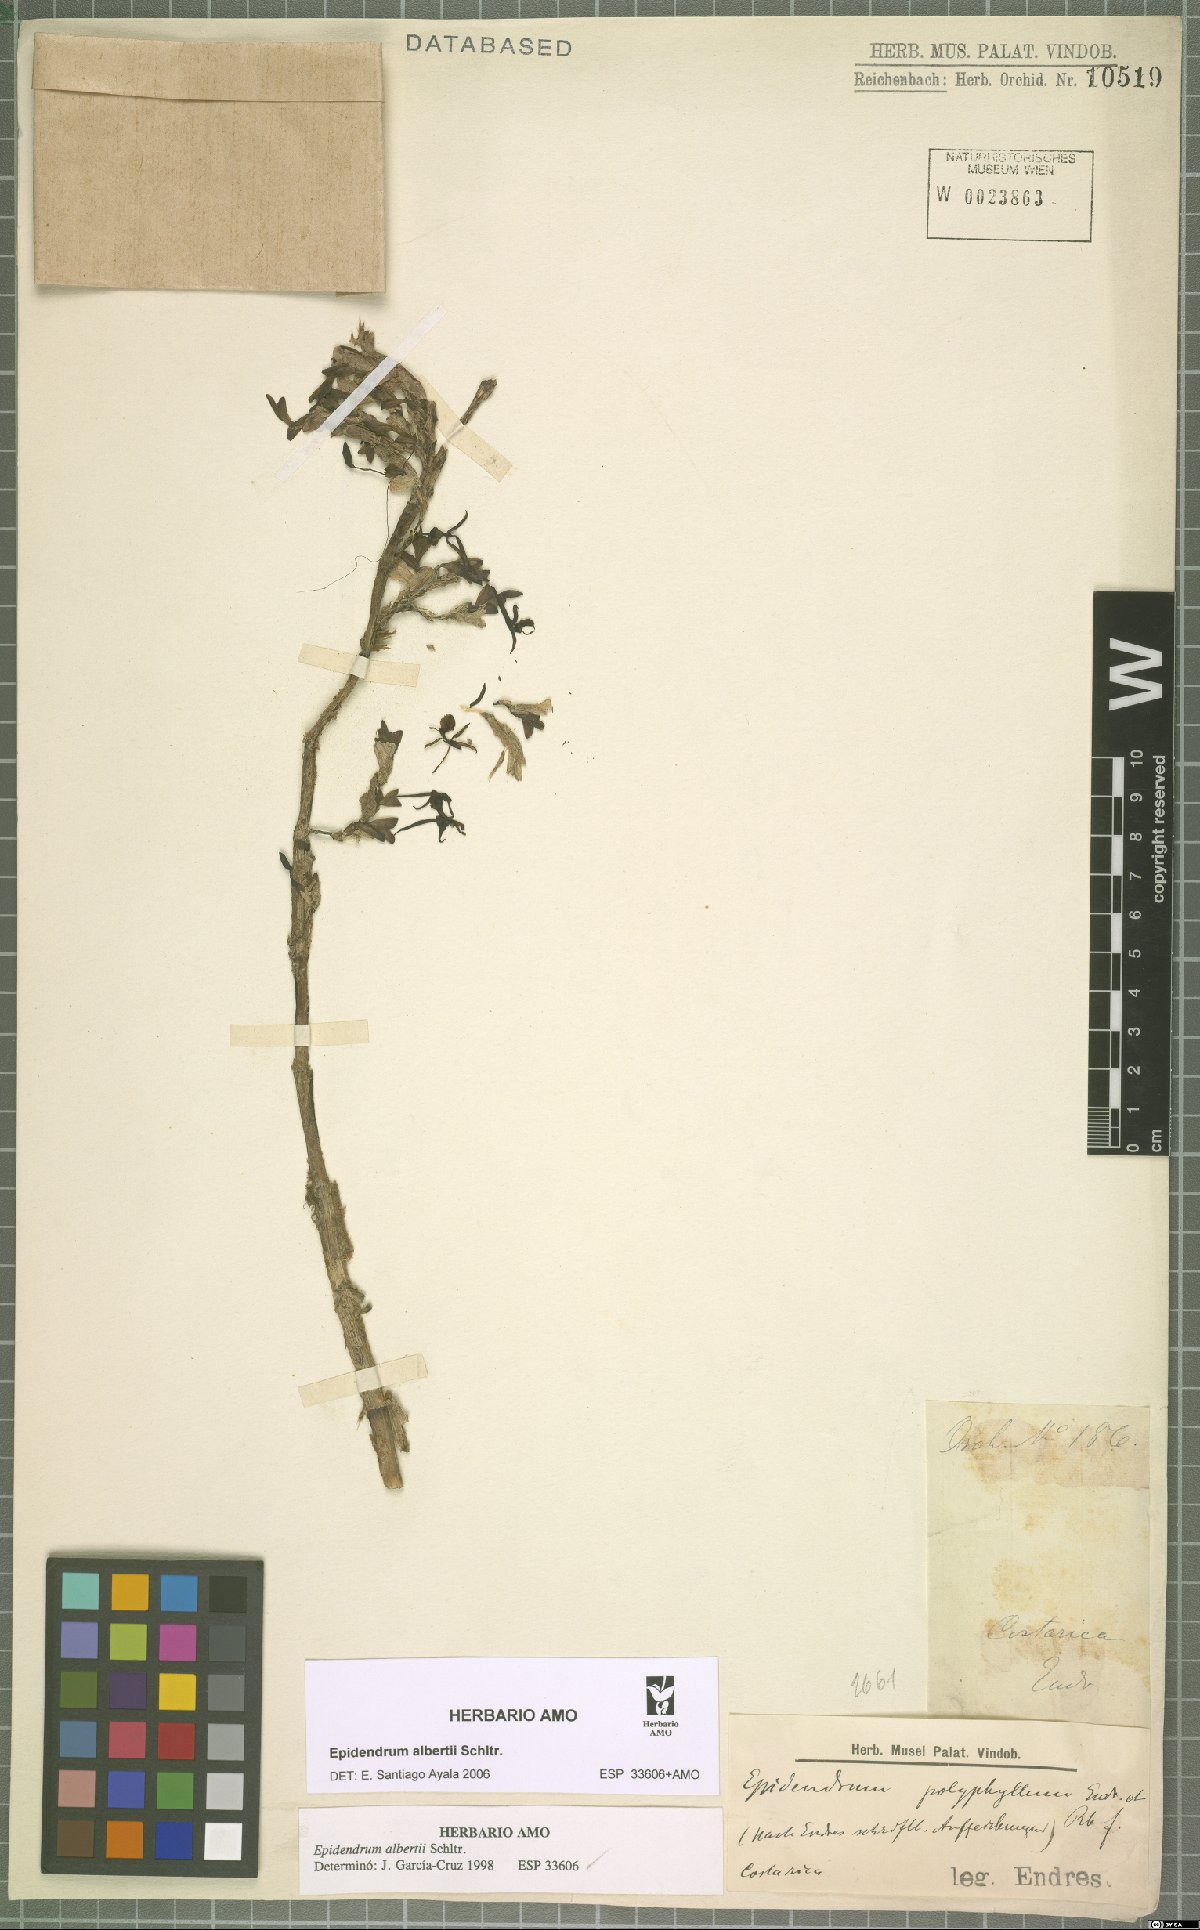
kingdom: Plantae
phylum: Tracheophyta
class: Liliopsida
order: Asparagales
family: Orchidaceae
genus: Epidendrum
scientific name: Epidendrum alberti
